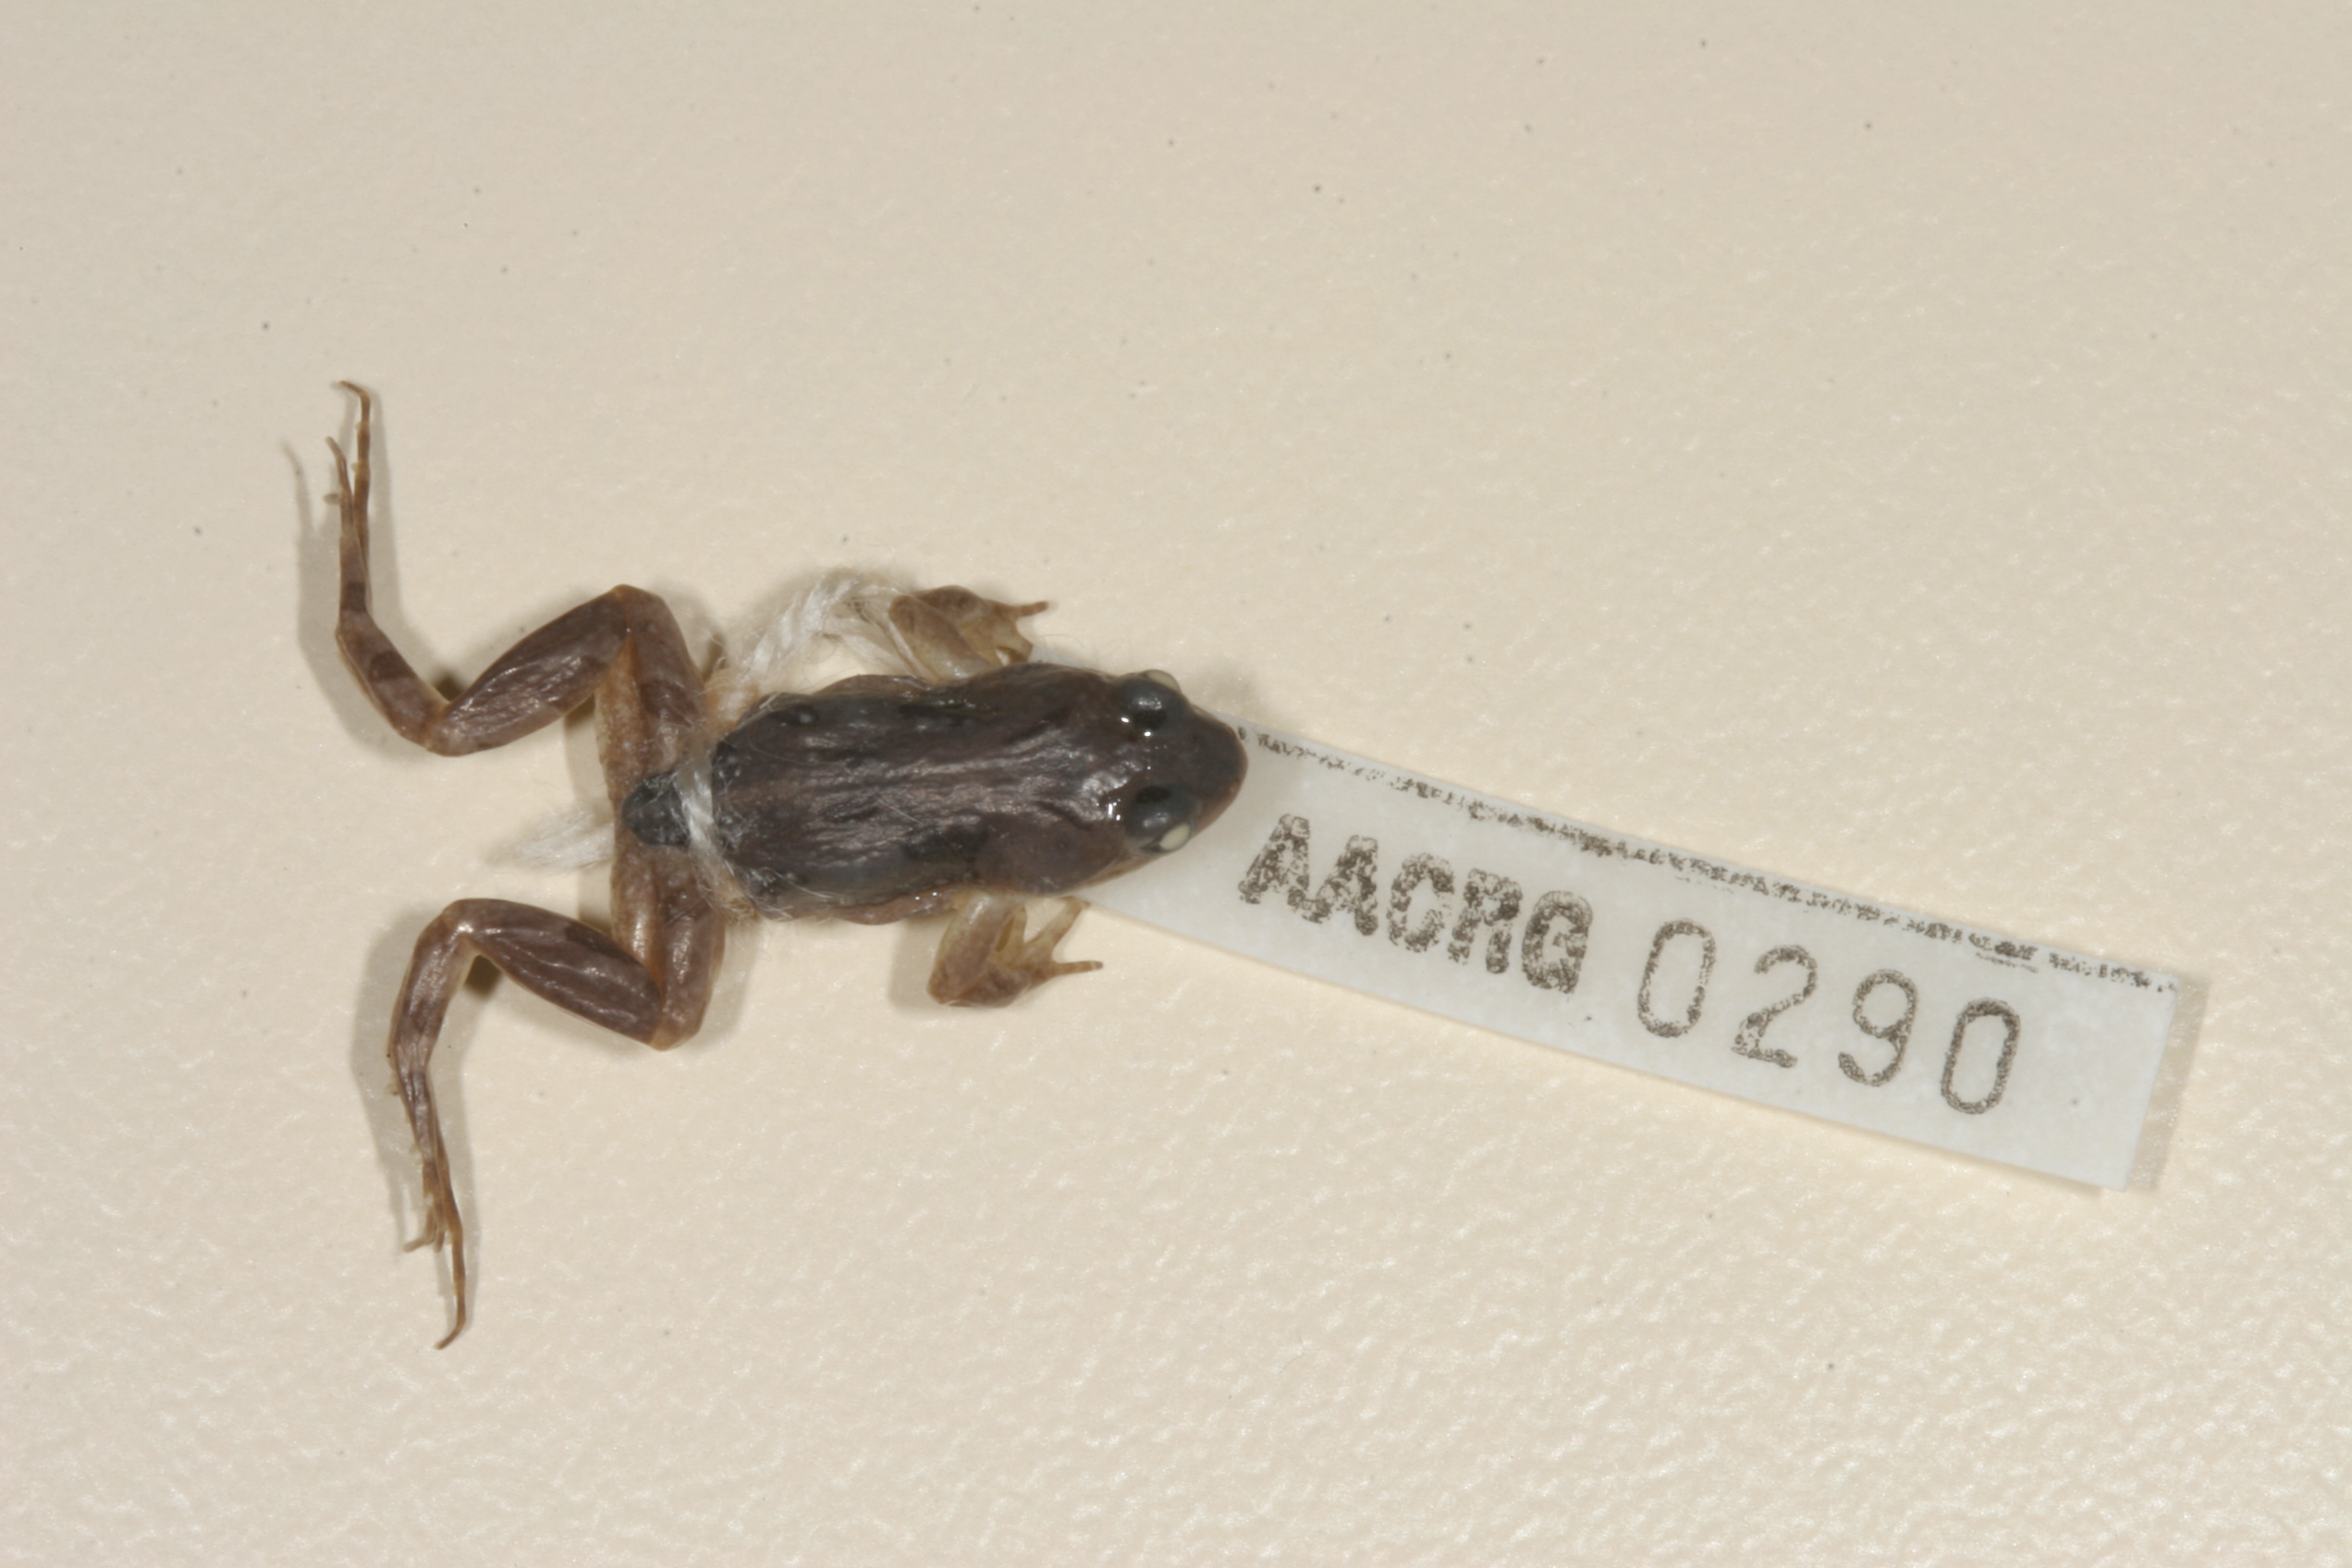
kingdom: Animalia
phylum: Chordata
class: Amphibia
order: Anura
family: Pyxicephalidae
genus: Cacosternum
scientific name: Cacosternum boettgeri
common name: Boettger's frog
